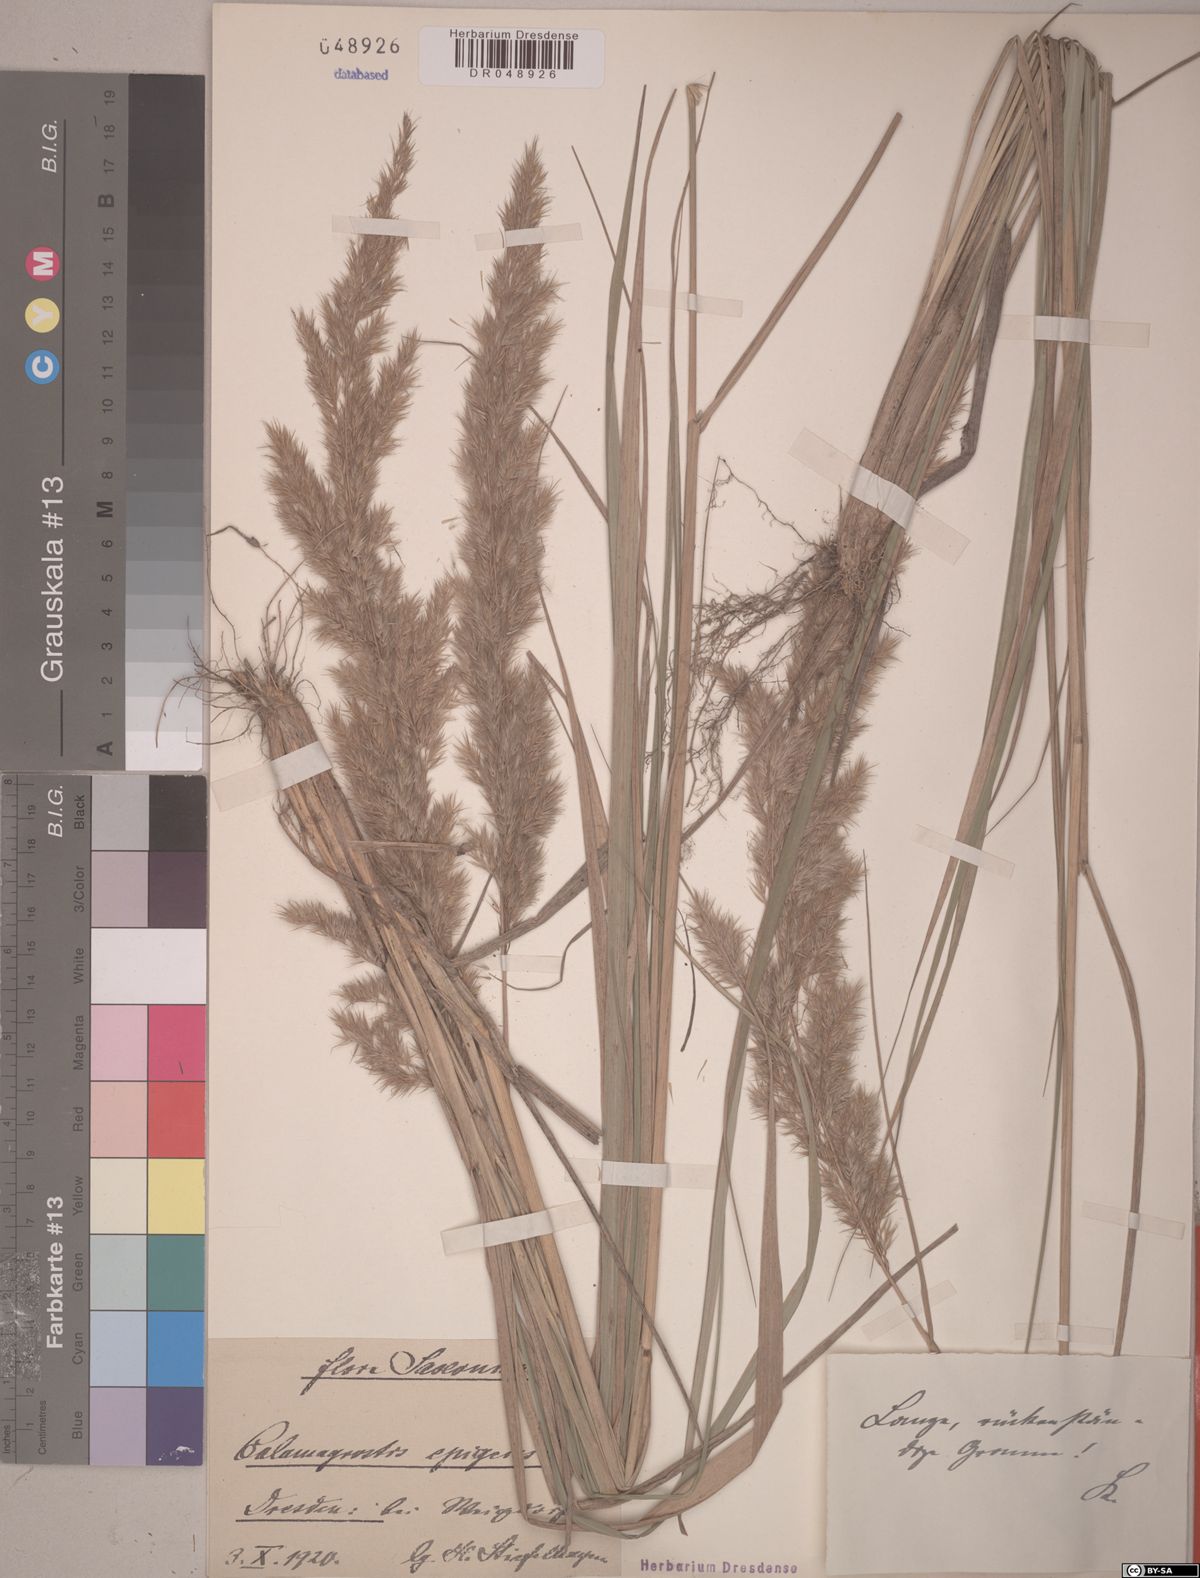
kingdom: Plantae
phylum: Tracheophyta
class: Liliopsida
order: Poales
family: Poaceae
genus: Calamagrostis
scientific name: Calamagrostis epigejos
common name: Wood small-reed
